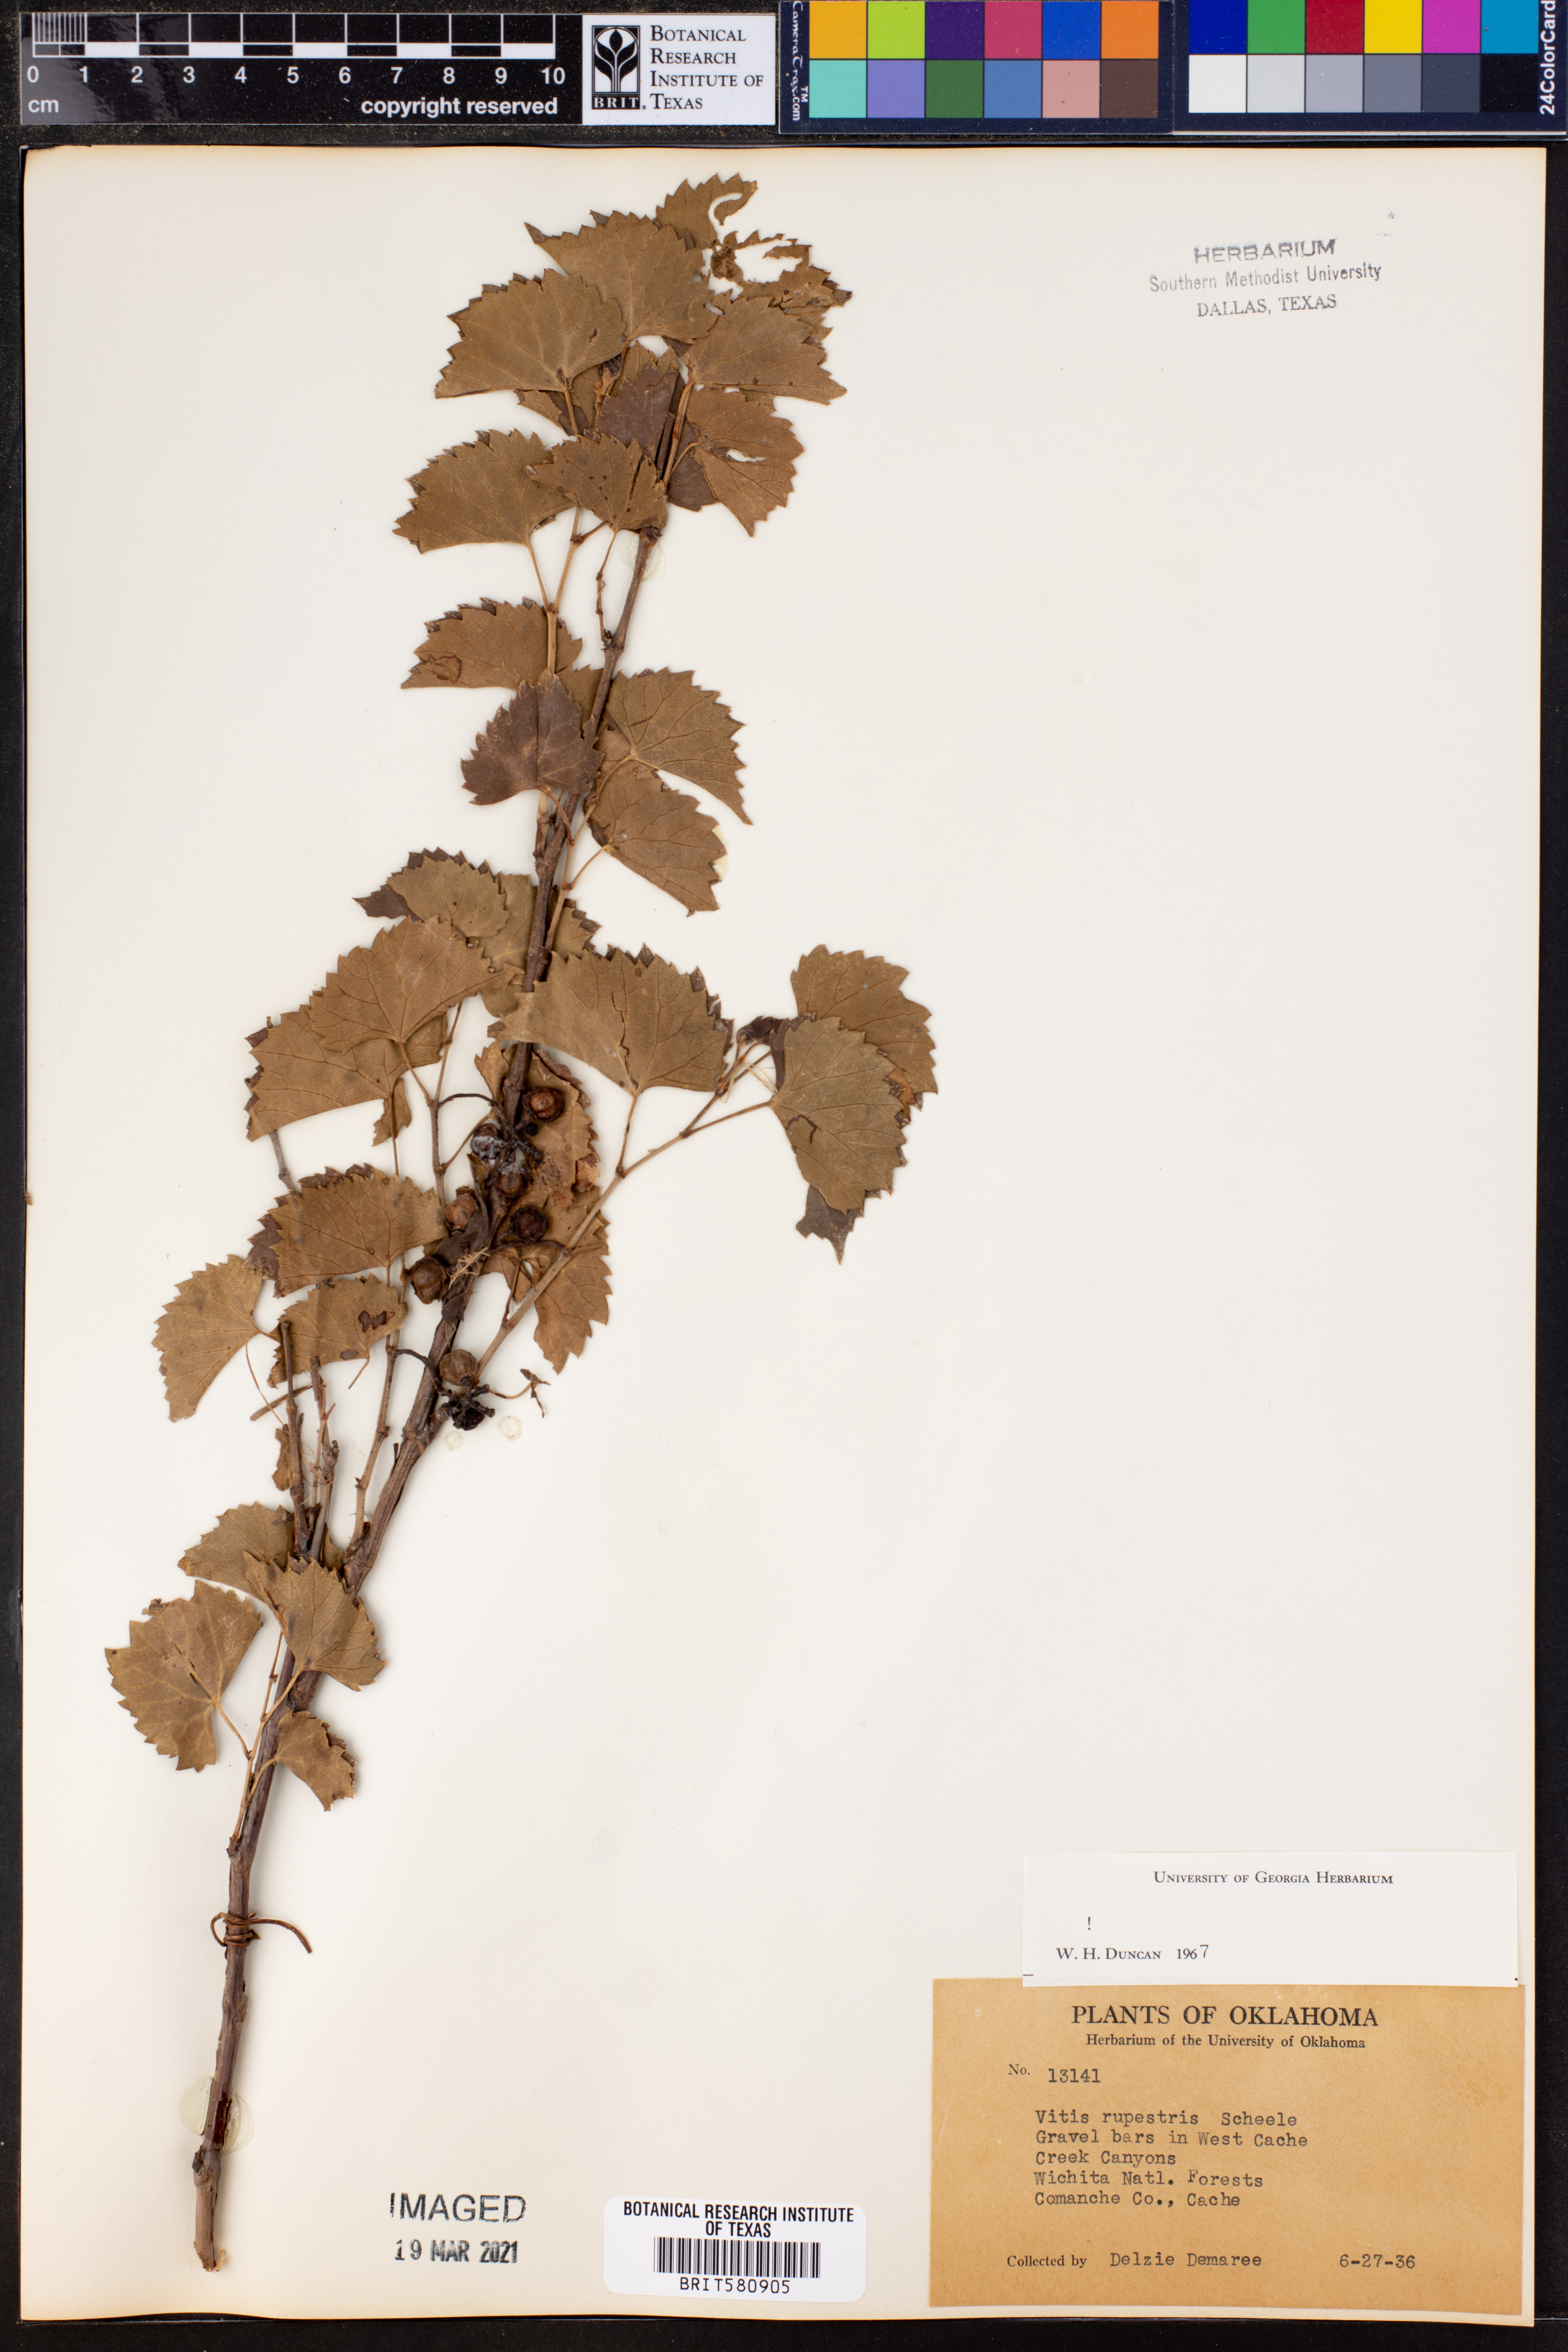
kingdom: Plantae
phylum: Tracheophyta
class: Magnoliopsida
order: Vitales
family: Vitaceae
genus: Vitis
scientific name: Vitis rupestris
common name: Rock grape
